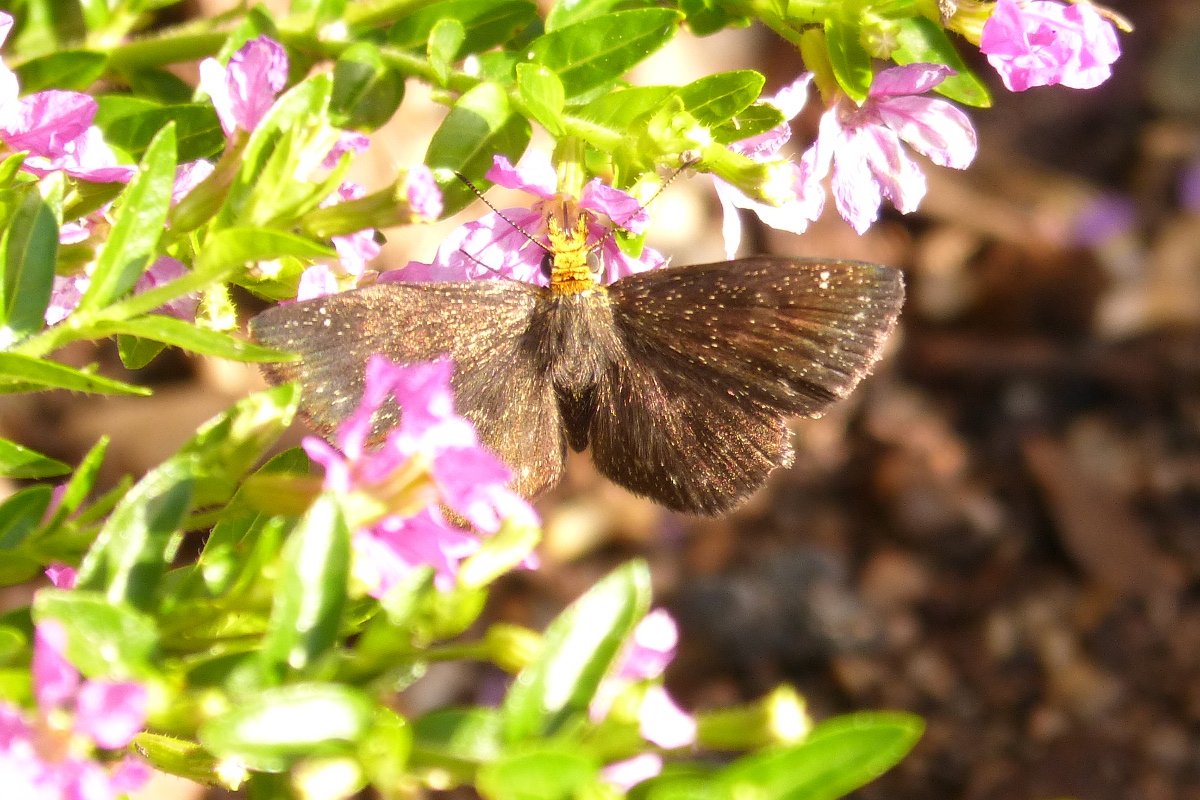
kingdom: Animalia
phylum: Arthropoda
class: Insecta
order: Lepidoptera
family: Hesperiidae
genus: Staphylus
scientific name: Staphylus ceos
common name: Golden-headed Scallopwing
